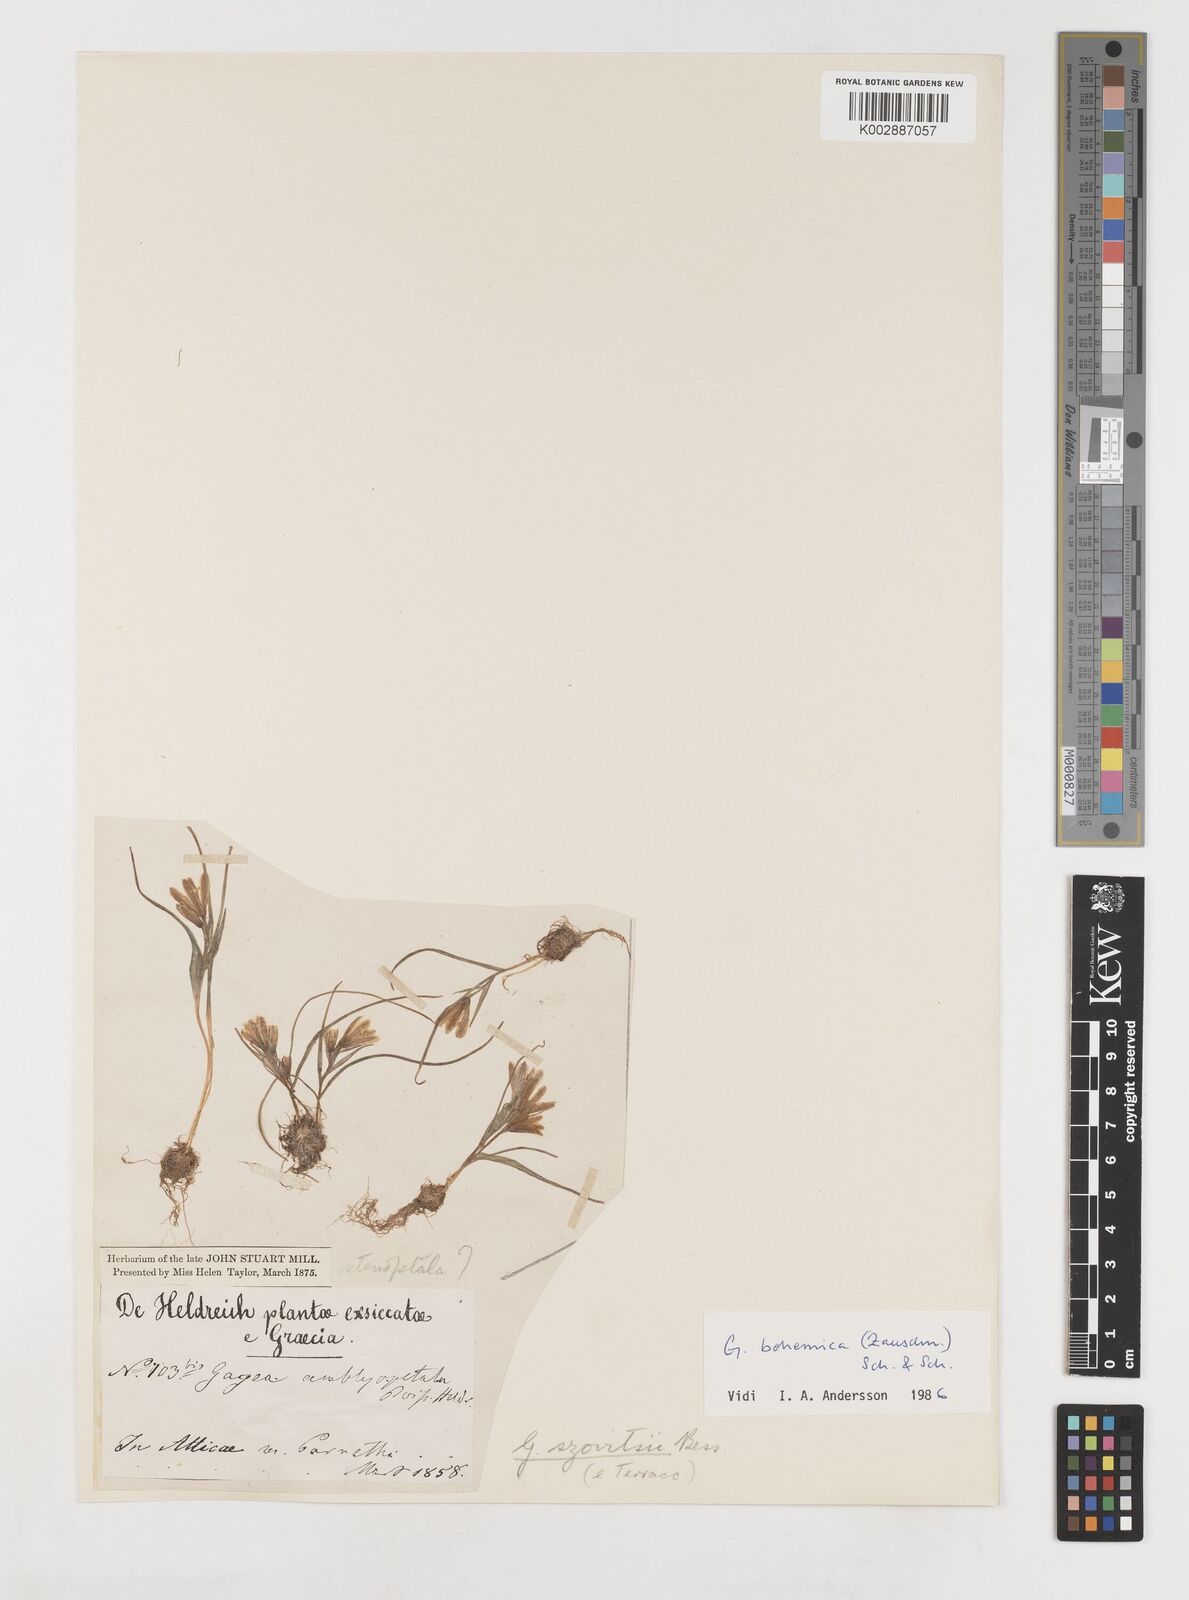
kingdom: Plantae
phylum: Tracheophyta
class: Liliopsida
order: Liliales
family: Liliaceae
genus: Gagea
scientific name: Gagea bohemica
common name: Early star-of-bethlehem
